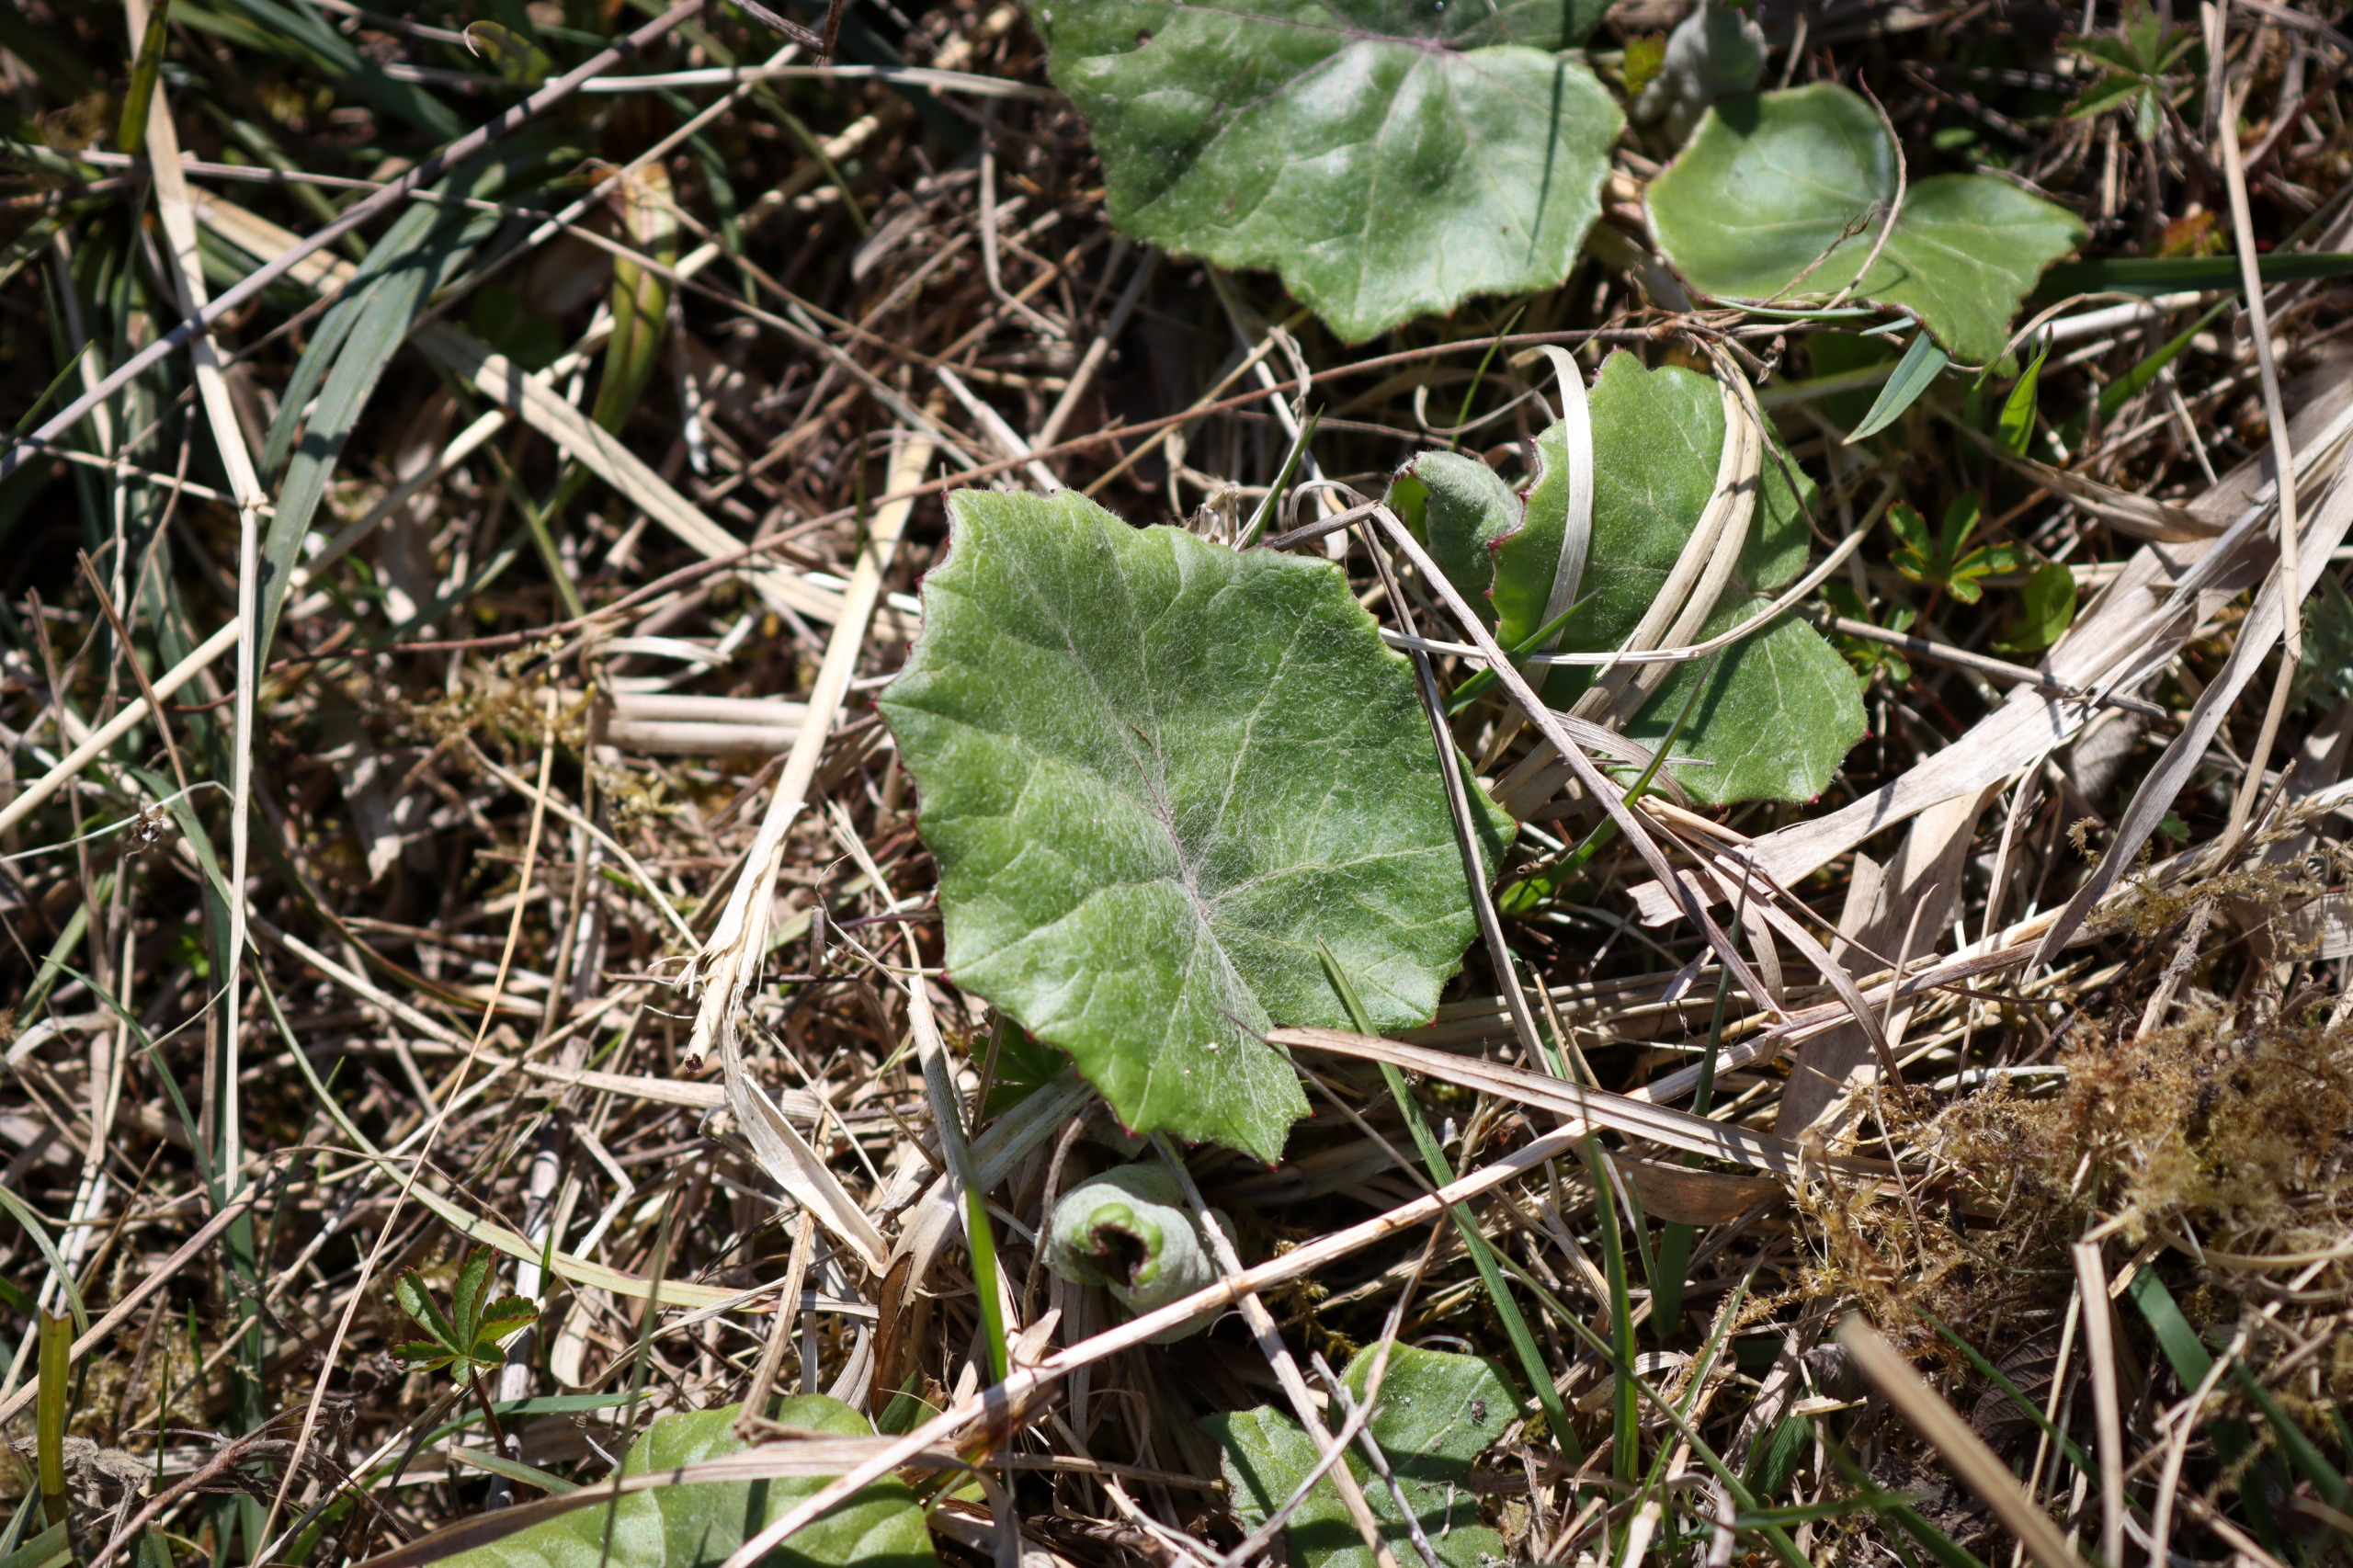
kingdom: Plantae
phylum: Tracheophyta
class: Magnoliopsida
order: Asterales
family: Asteraceae
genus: Tussilago
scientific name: Tussilago farfara
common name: Følfod
